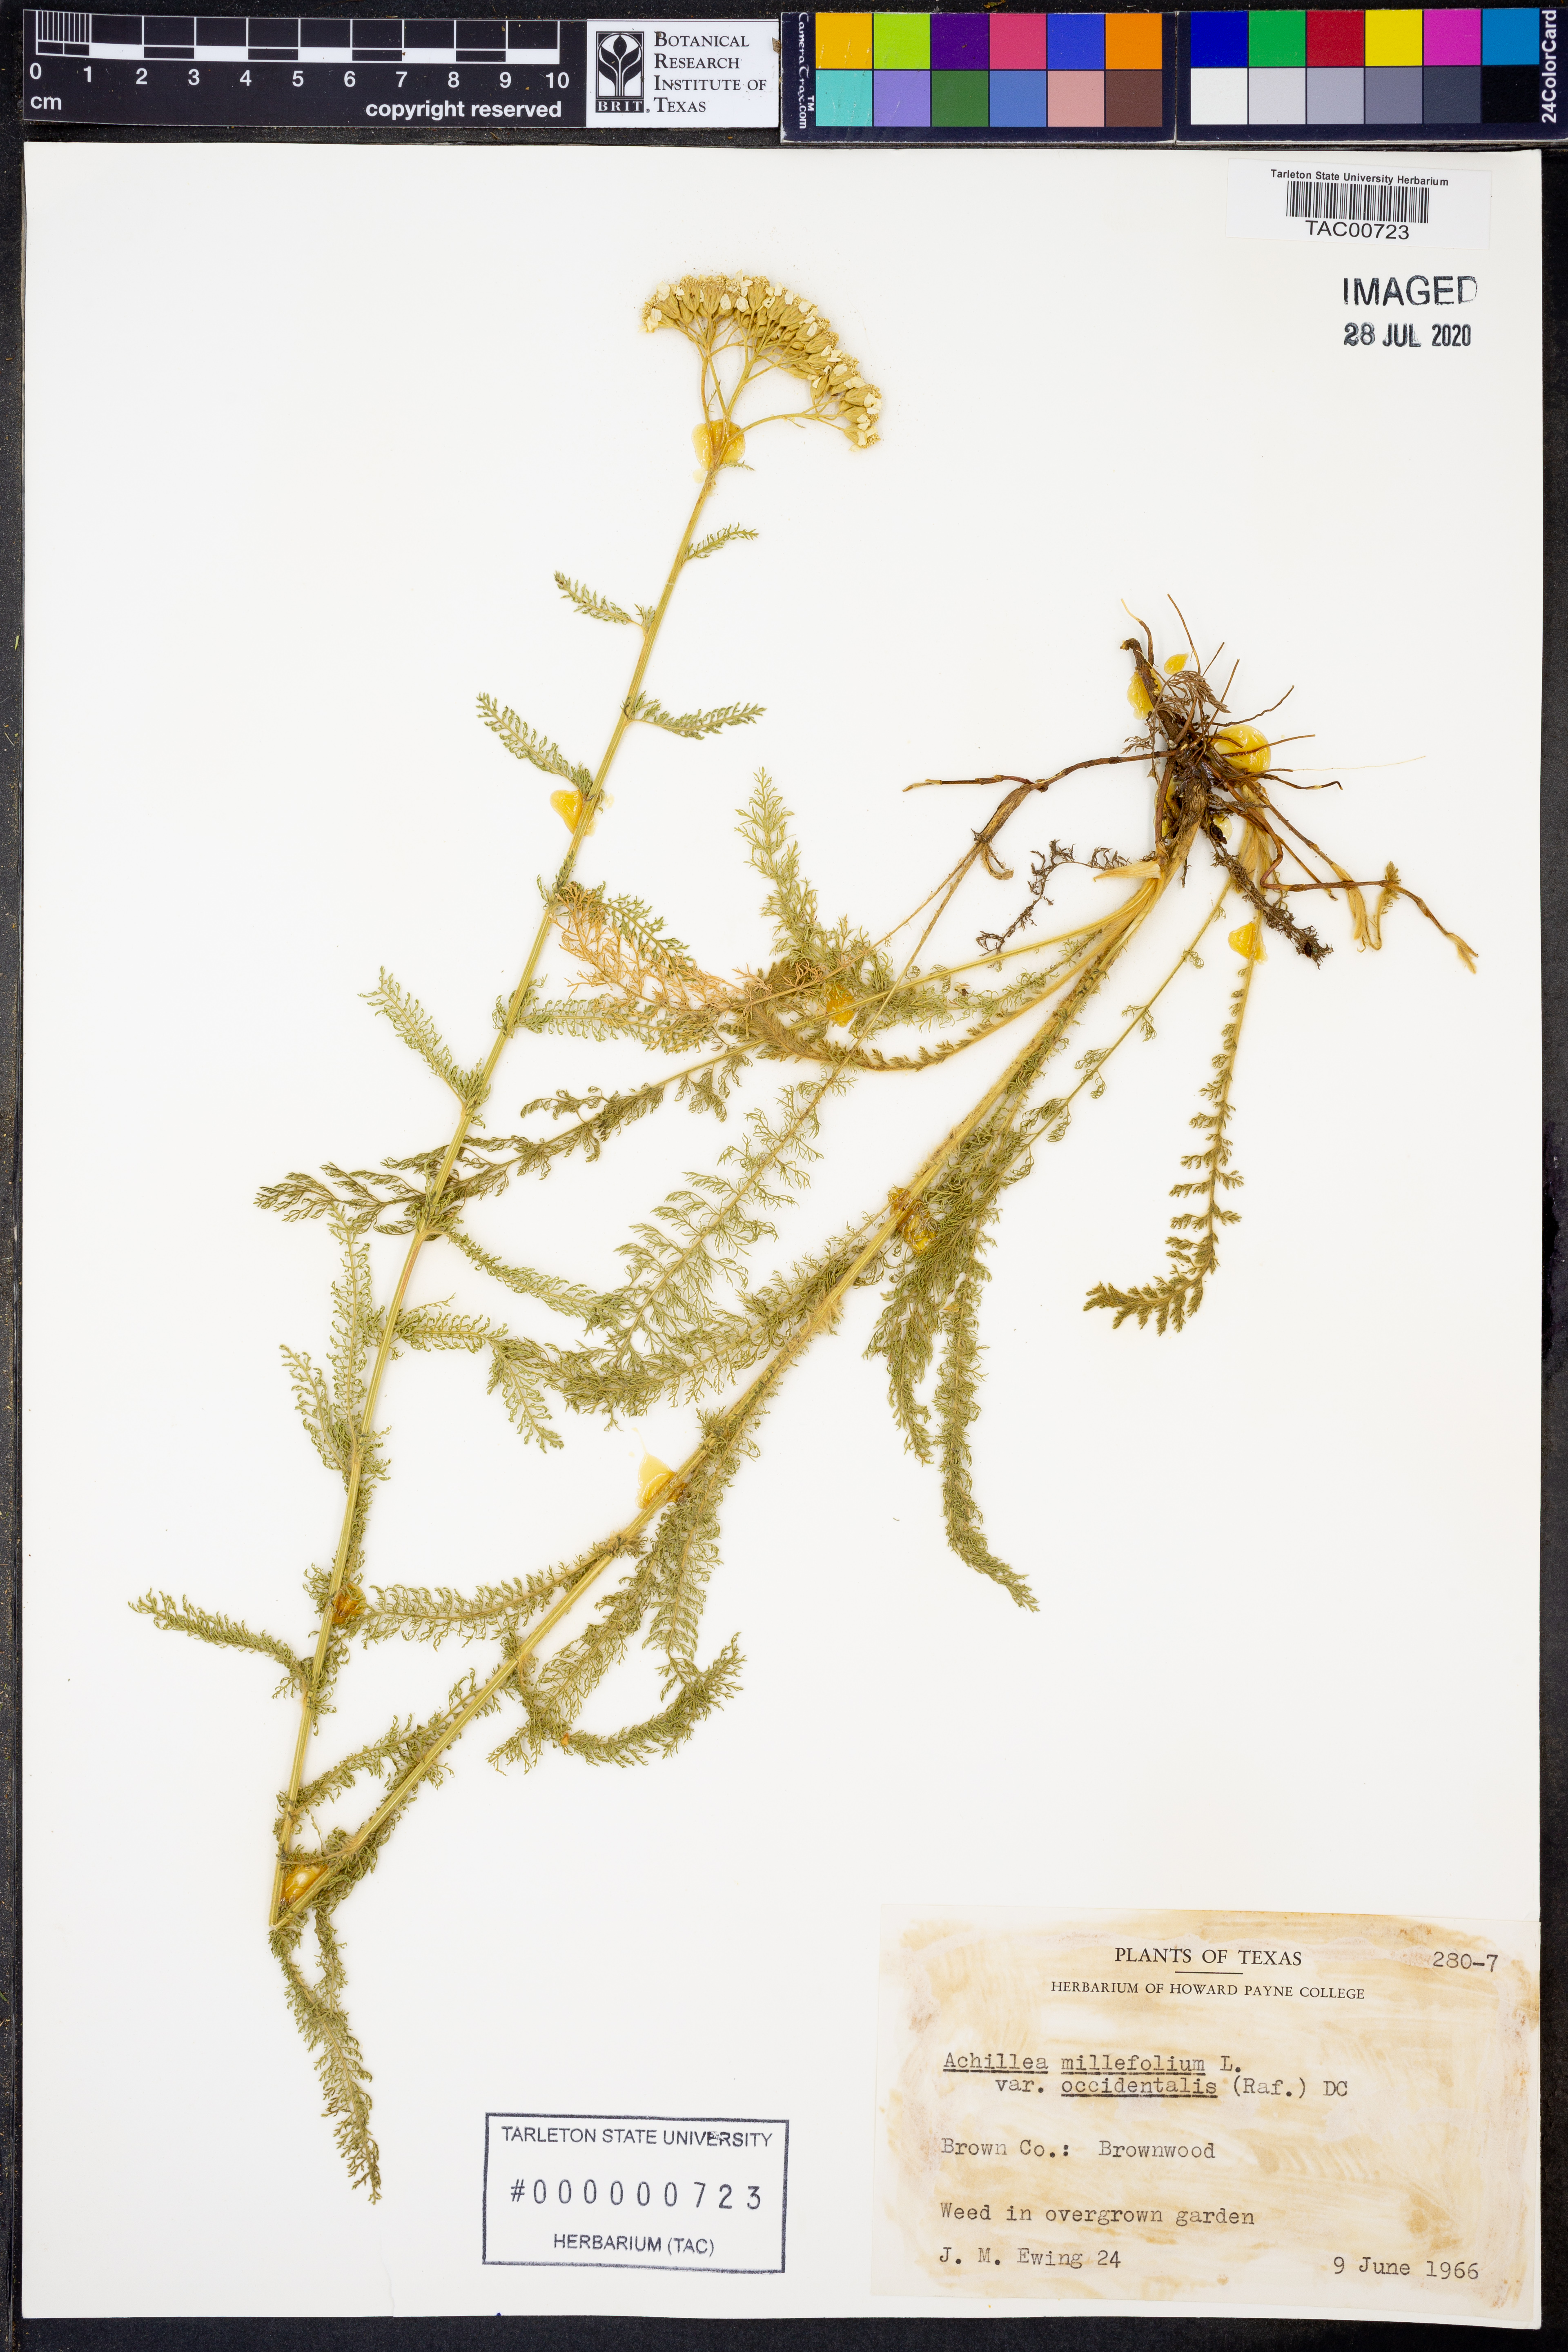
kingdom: Plantae
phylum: Tracheophyta
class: Magnoliopsida
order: Asterales
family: Asteraceae
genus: Achillea
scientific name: Achillea millefolium
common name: Yarrow
